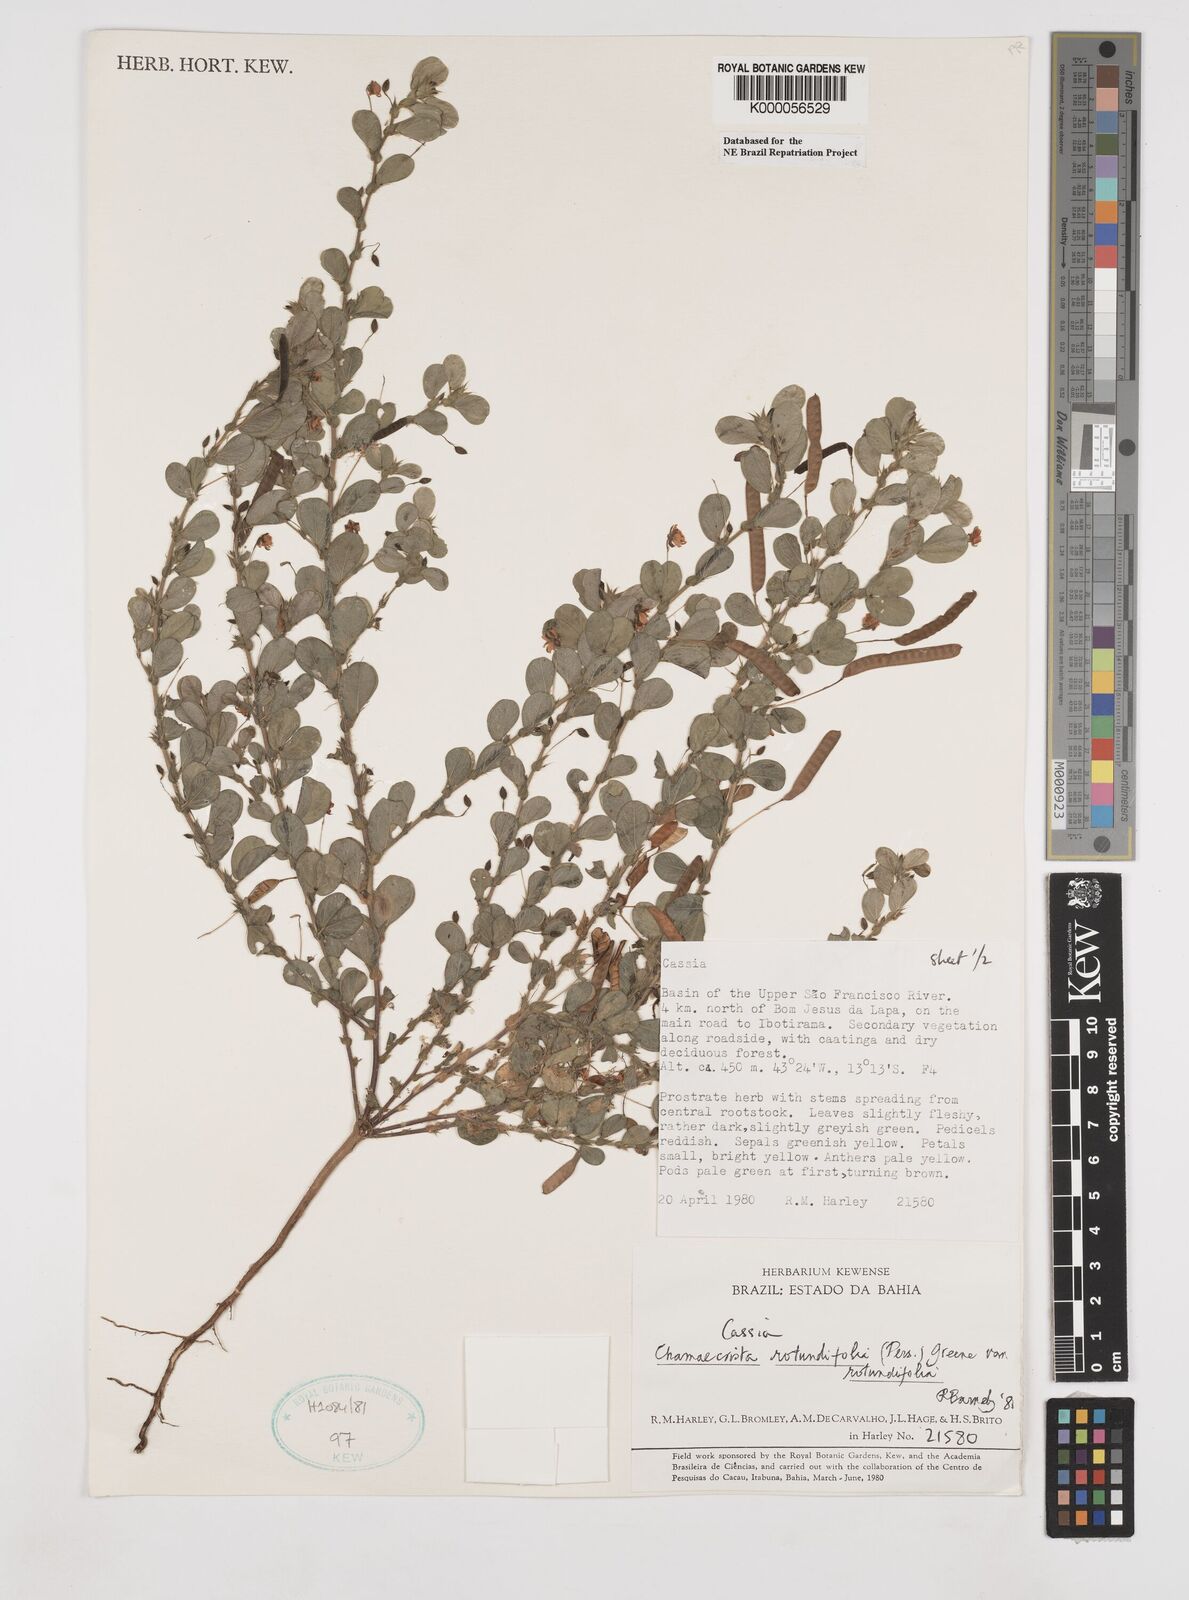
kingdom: Plantae
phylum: Tracheophyta
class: Magnoliopsida
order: Fabales
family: Fabaceae
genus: Chamaecrista
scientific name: Chamaecrista rotundifolia
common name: Round-leaf cassia
